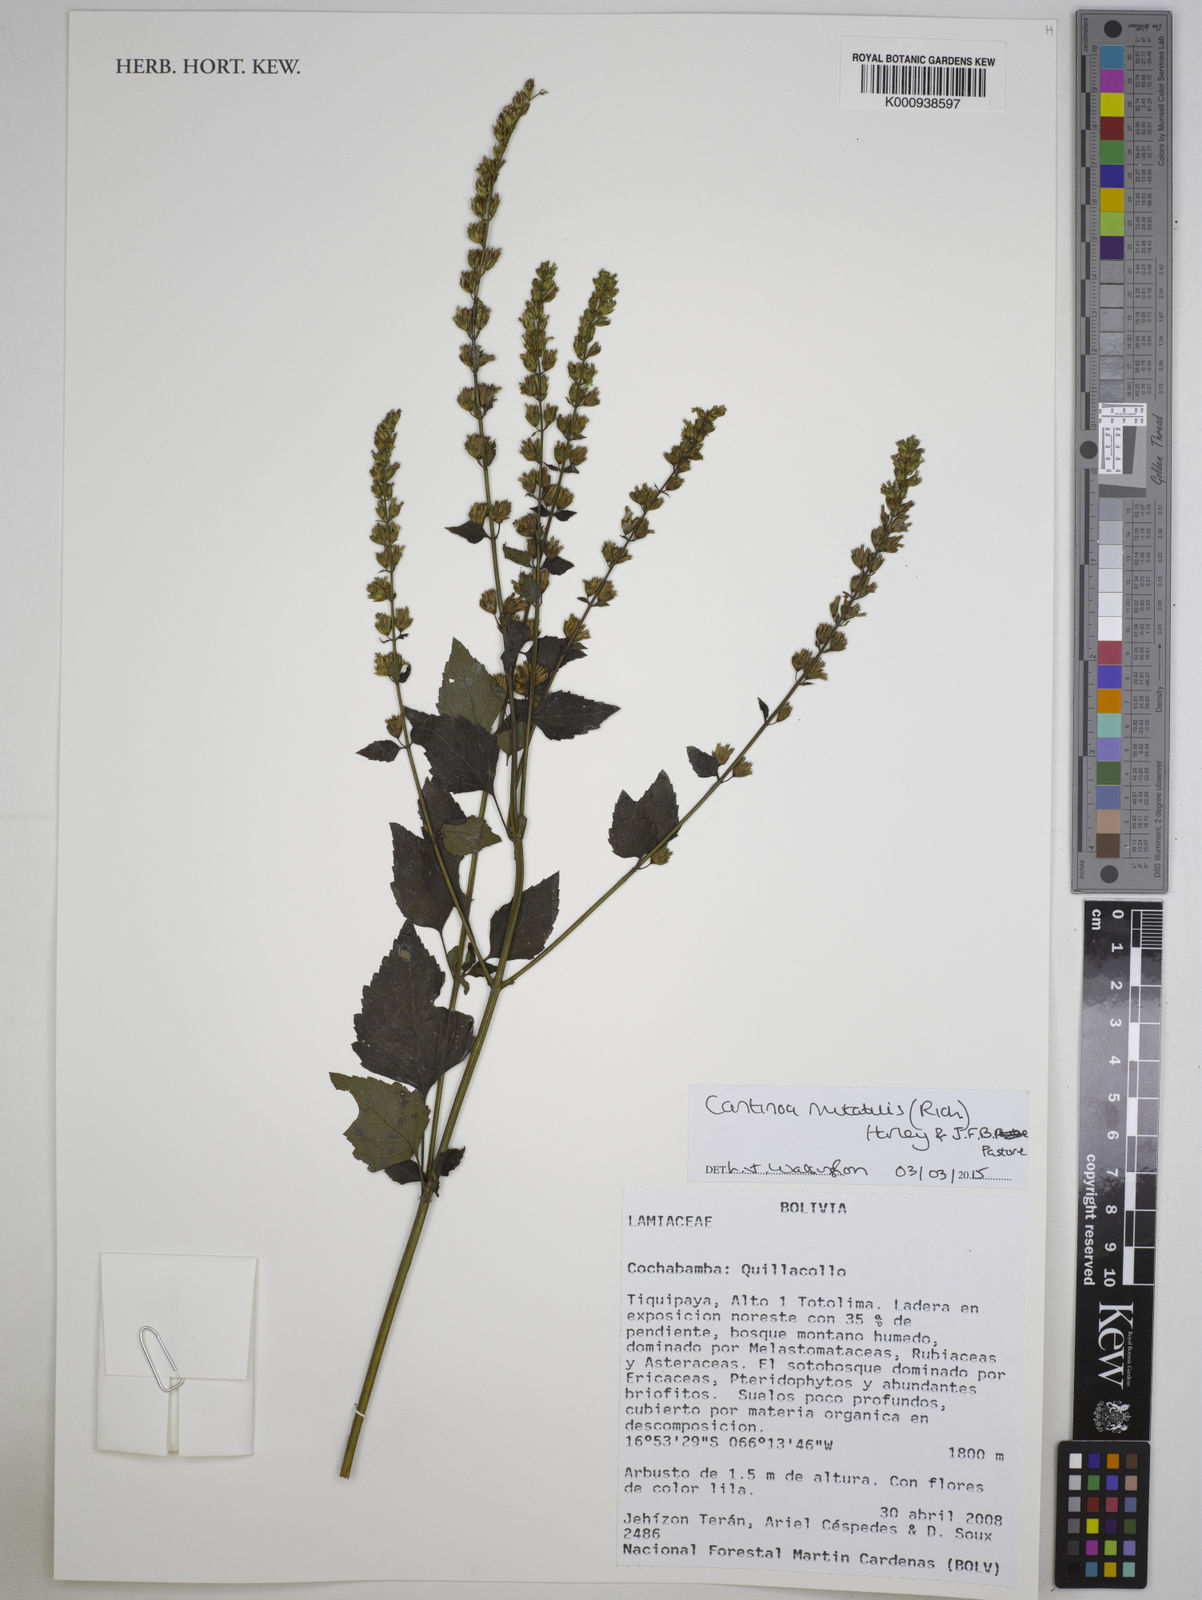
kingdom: Plantae
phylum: Tracheophyta
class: Magnoliopsida
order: Lamiales
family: Lamiaceae
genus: Cantinoa
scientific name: Cantinoa mutabilis
